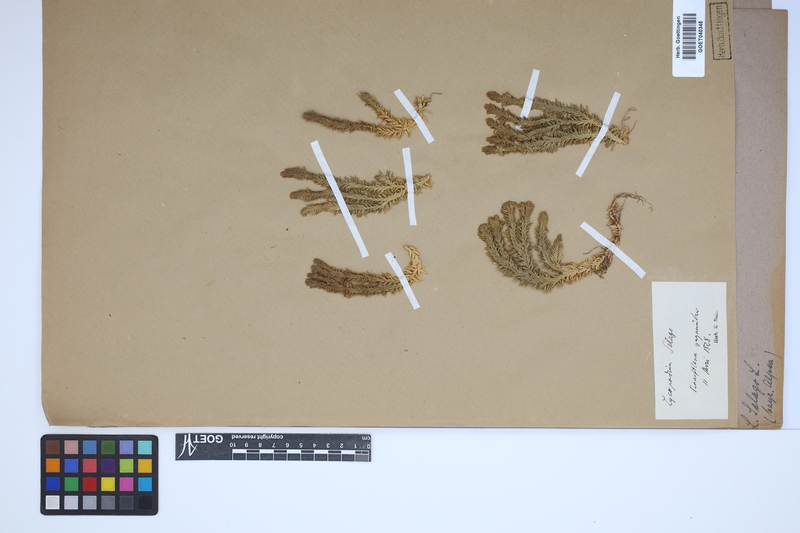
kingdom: Plantae
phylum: Tracheophyta
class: Lycopodiopsida
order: Lycopodiales
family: Lycopodiaceae
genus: Huperzia
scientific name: Huperzia selago
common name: Northern firmoss
